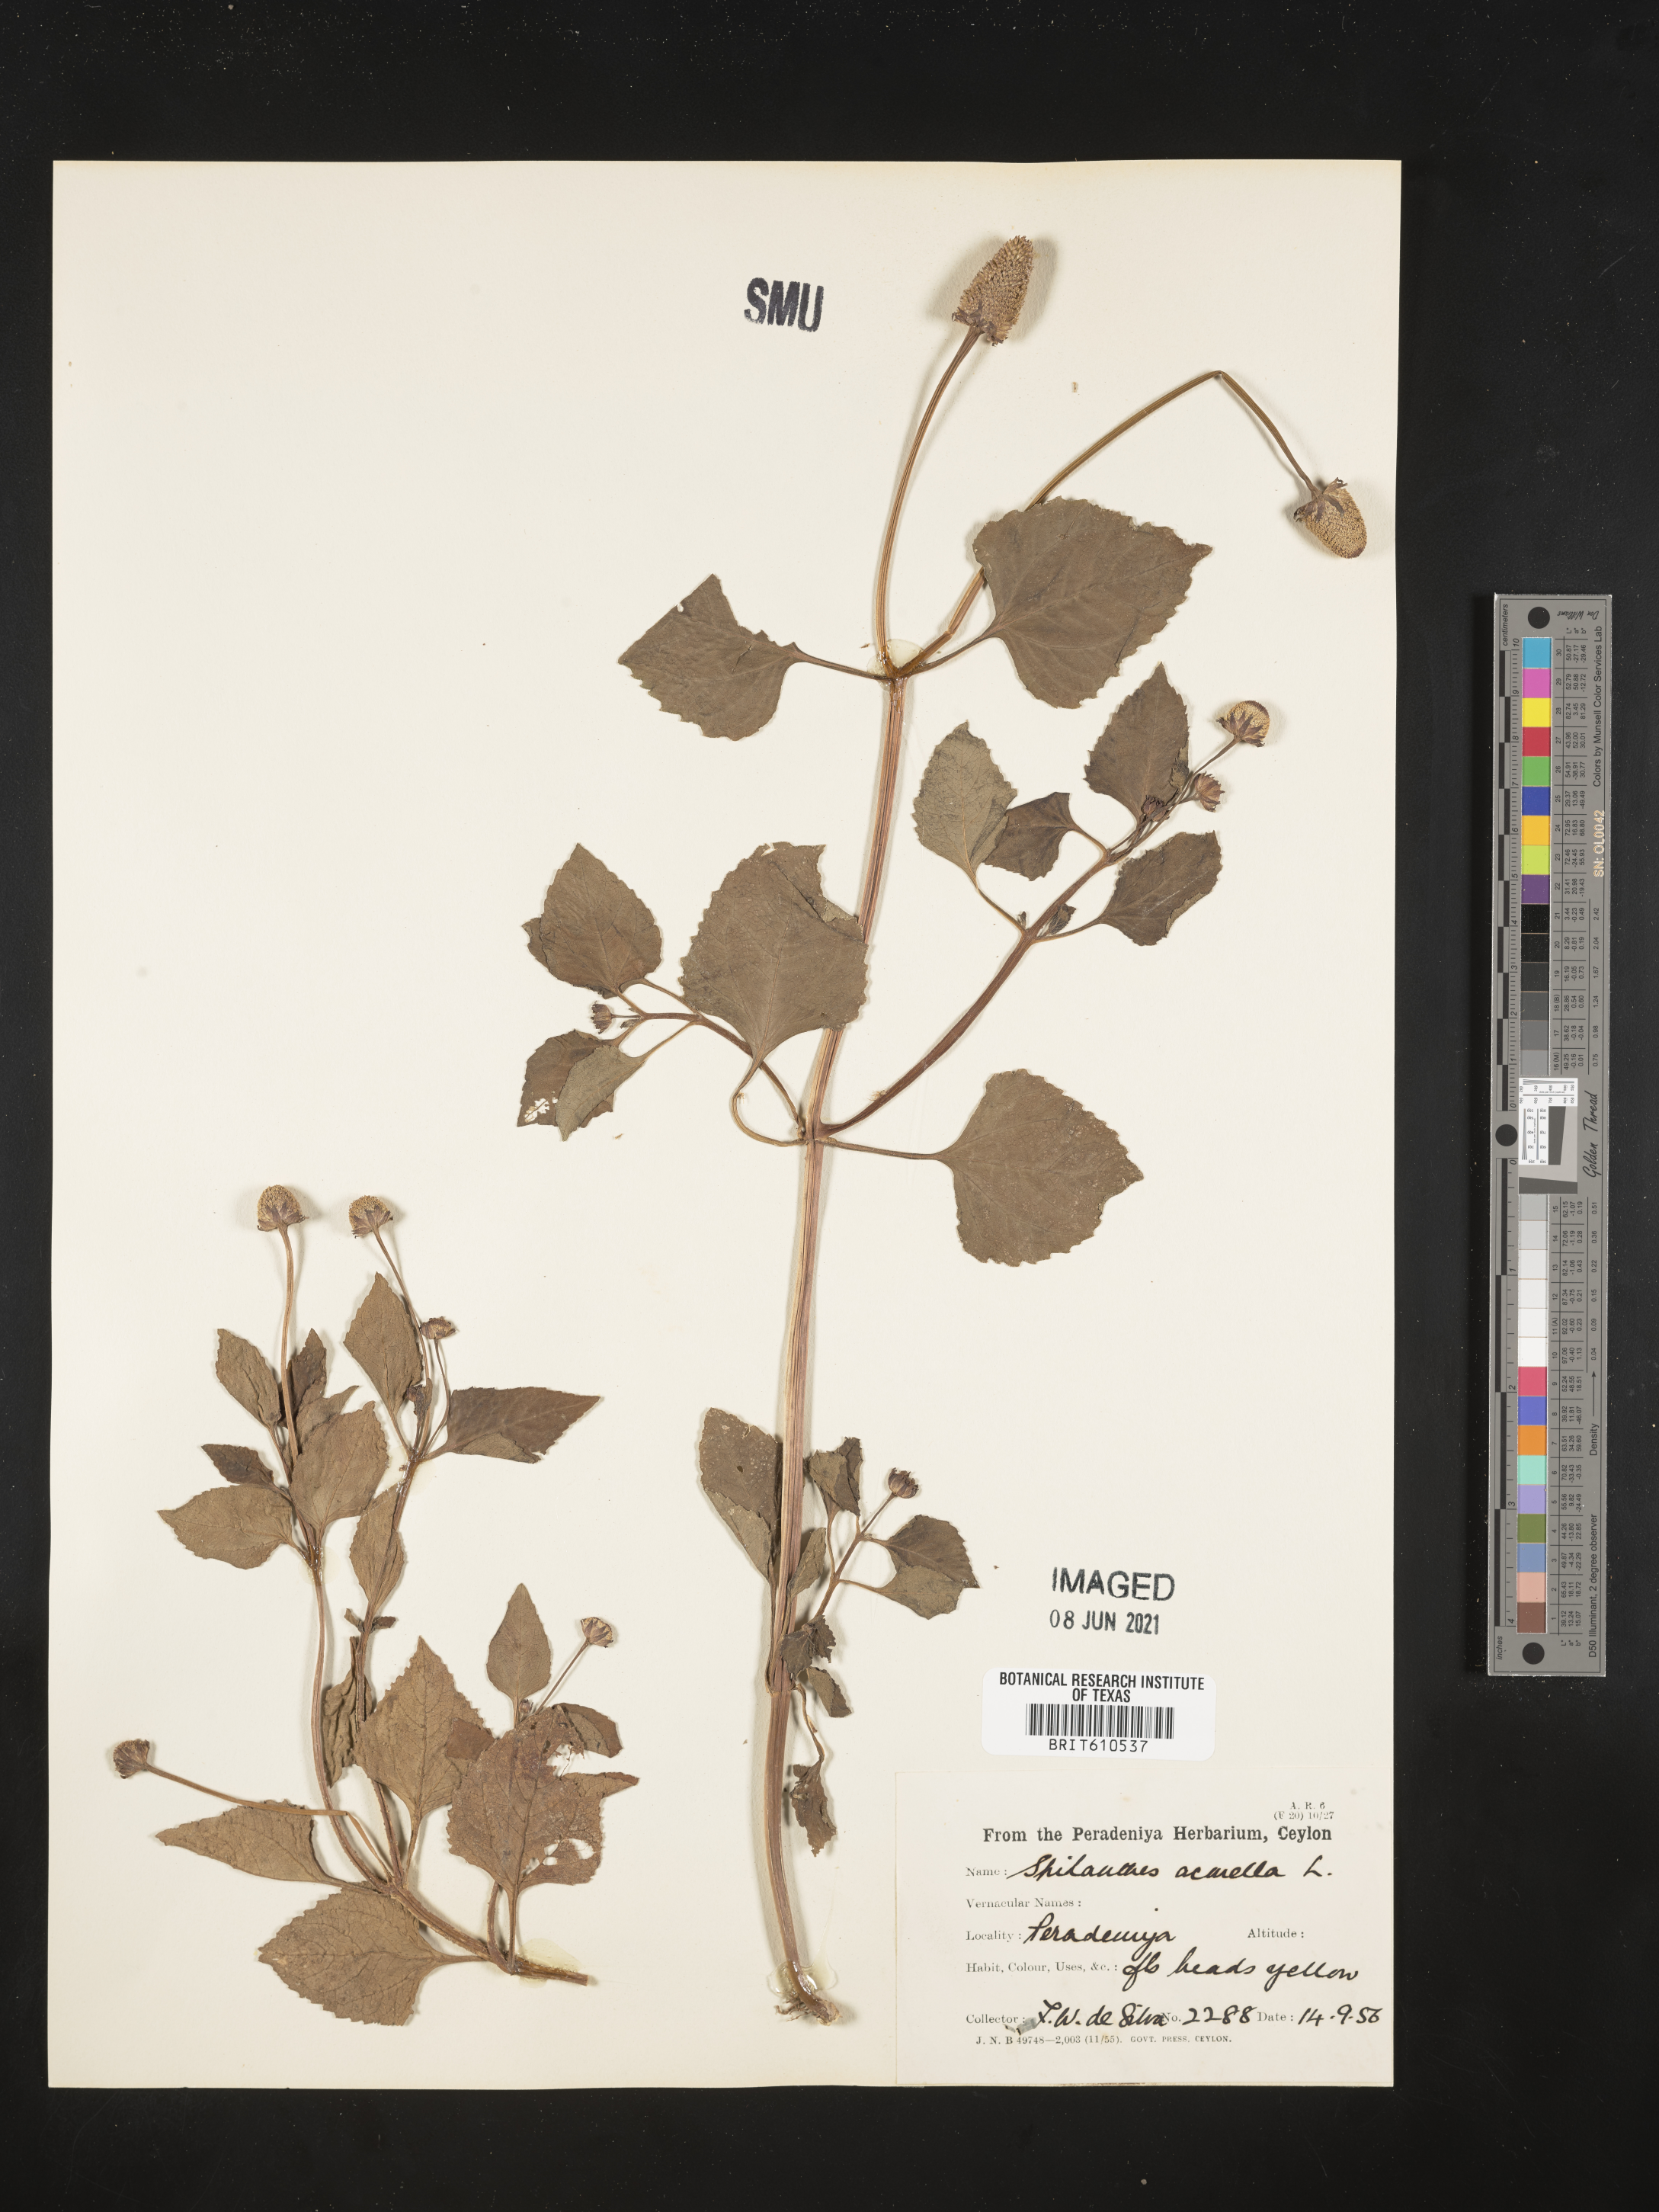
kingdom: Plantae
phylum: Tracheophyta
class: Magnoliopsida
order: Asterales
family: Asteraceae
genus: Blainvillea
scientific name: Blainvillea acmella
